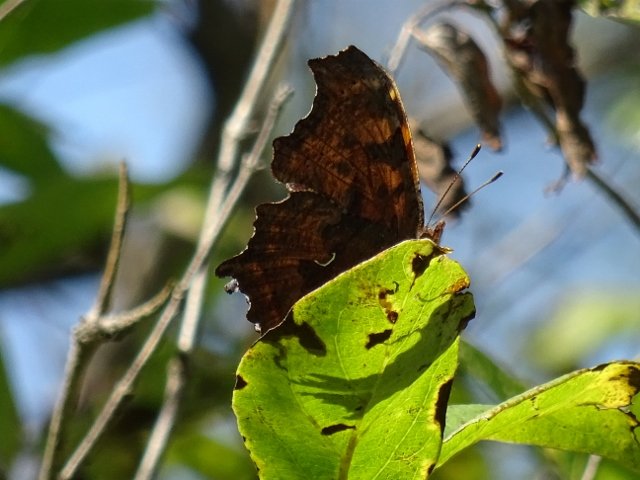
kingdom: Animalia
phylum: Arthropoda
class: Insecta
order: Lepidoptera
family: Nymphalidae
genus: Polygonia
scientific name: Polygonia comma
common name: Eastern Comma
